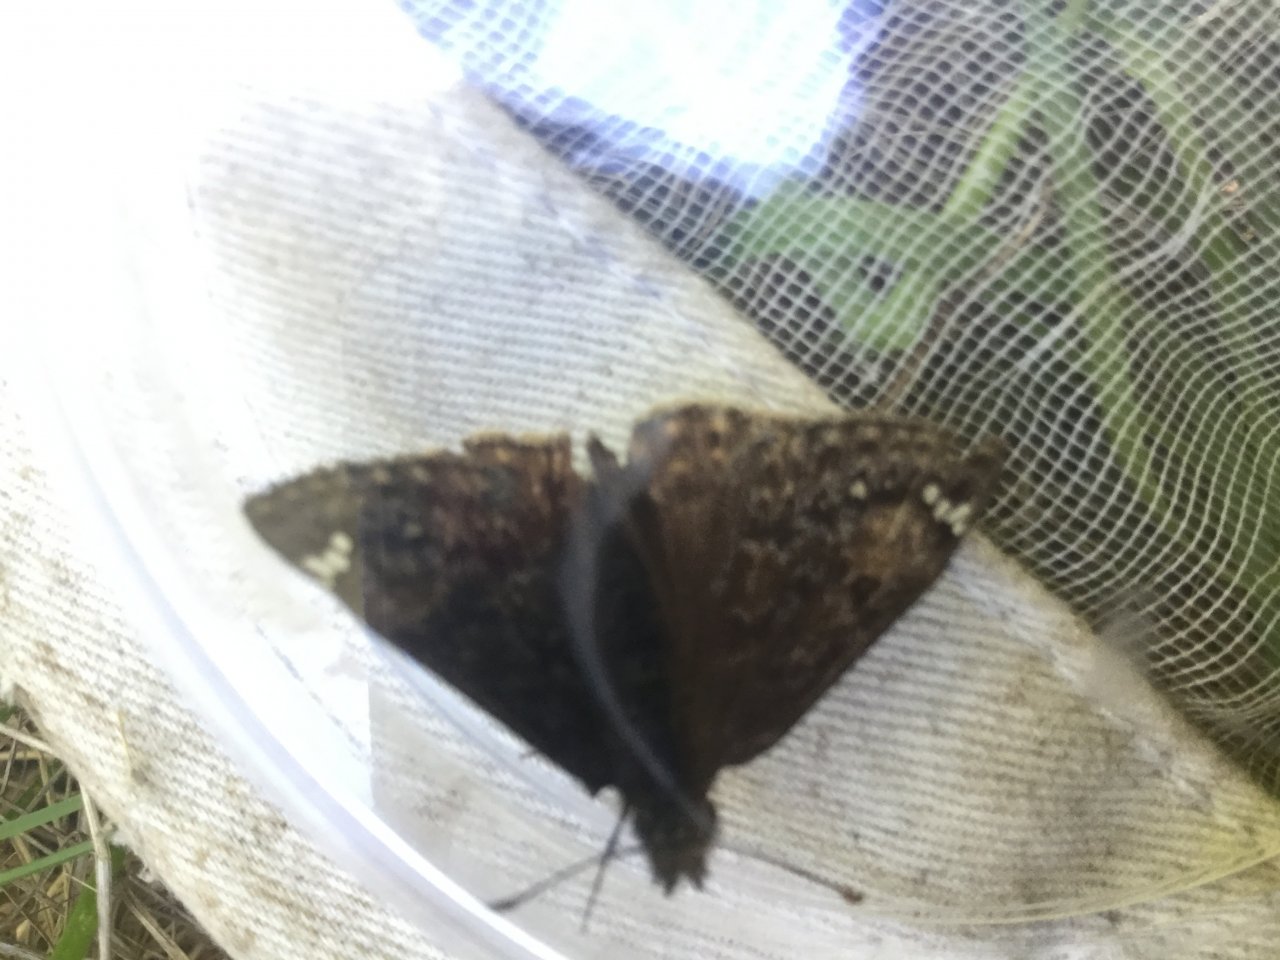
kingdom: Animalia
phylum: Arthropoda
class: Insecta
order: Lepidoptera
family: Hesperiidae
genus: Gesta
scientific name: Gesta
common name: Juvenal's Duskywing
